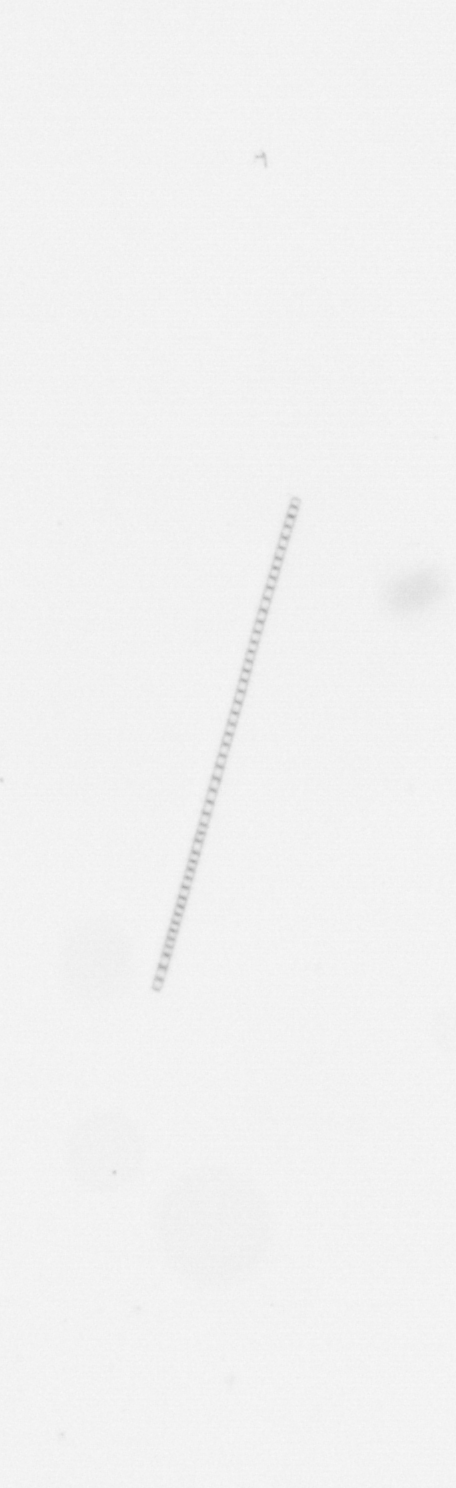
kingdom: Chromista
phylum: Ochrophyta
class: Bacillariophyceae
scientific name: Bacillariophyceae
